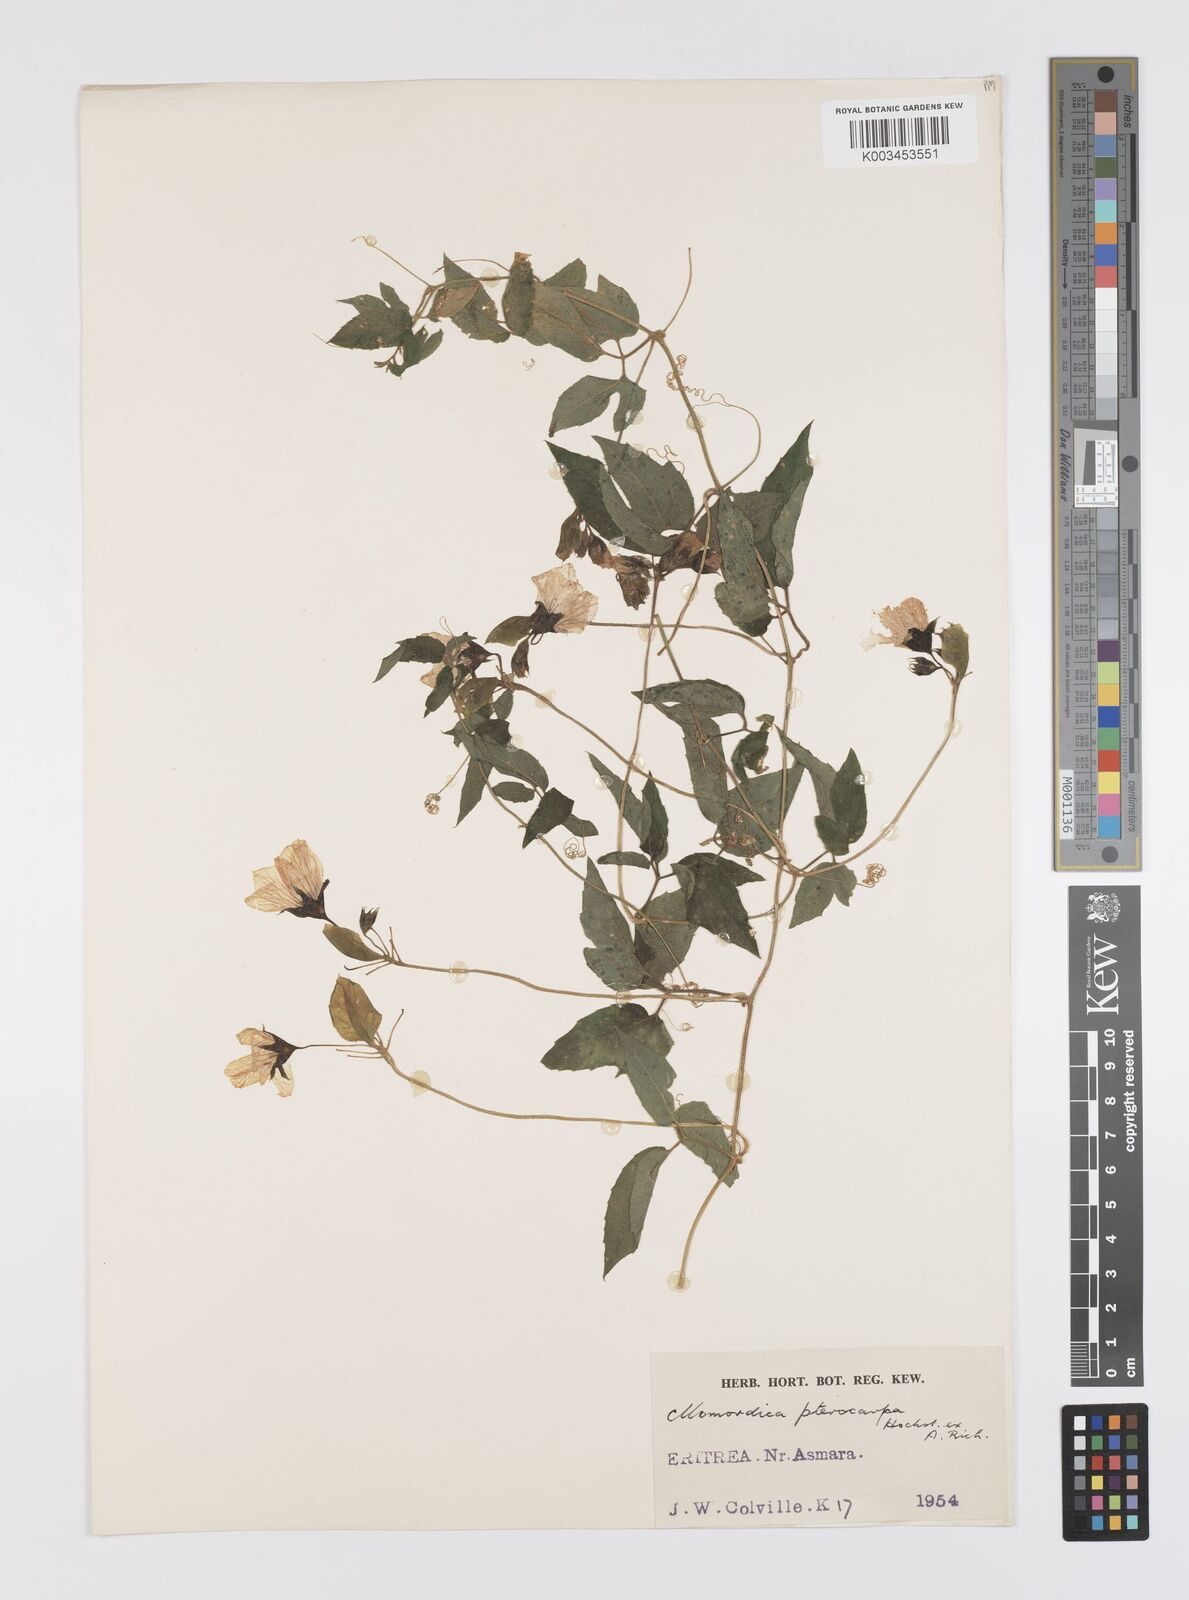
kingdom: Plantae
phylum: Tracheophyta
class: Magnoliopsida
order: Cucurbitales
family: Cucurbitaceae
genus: Momordica
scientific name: Momordica pterocarpa
